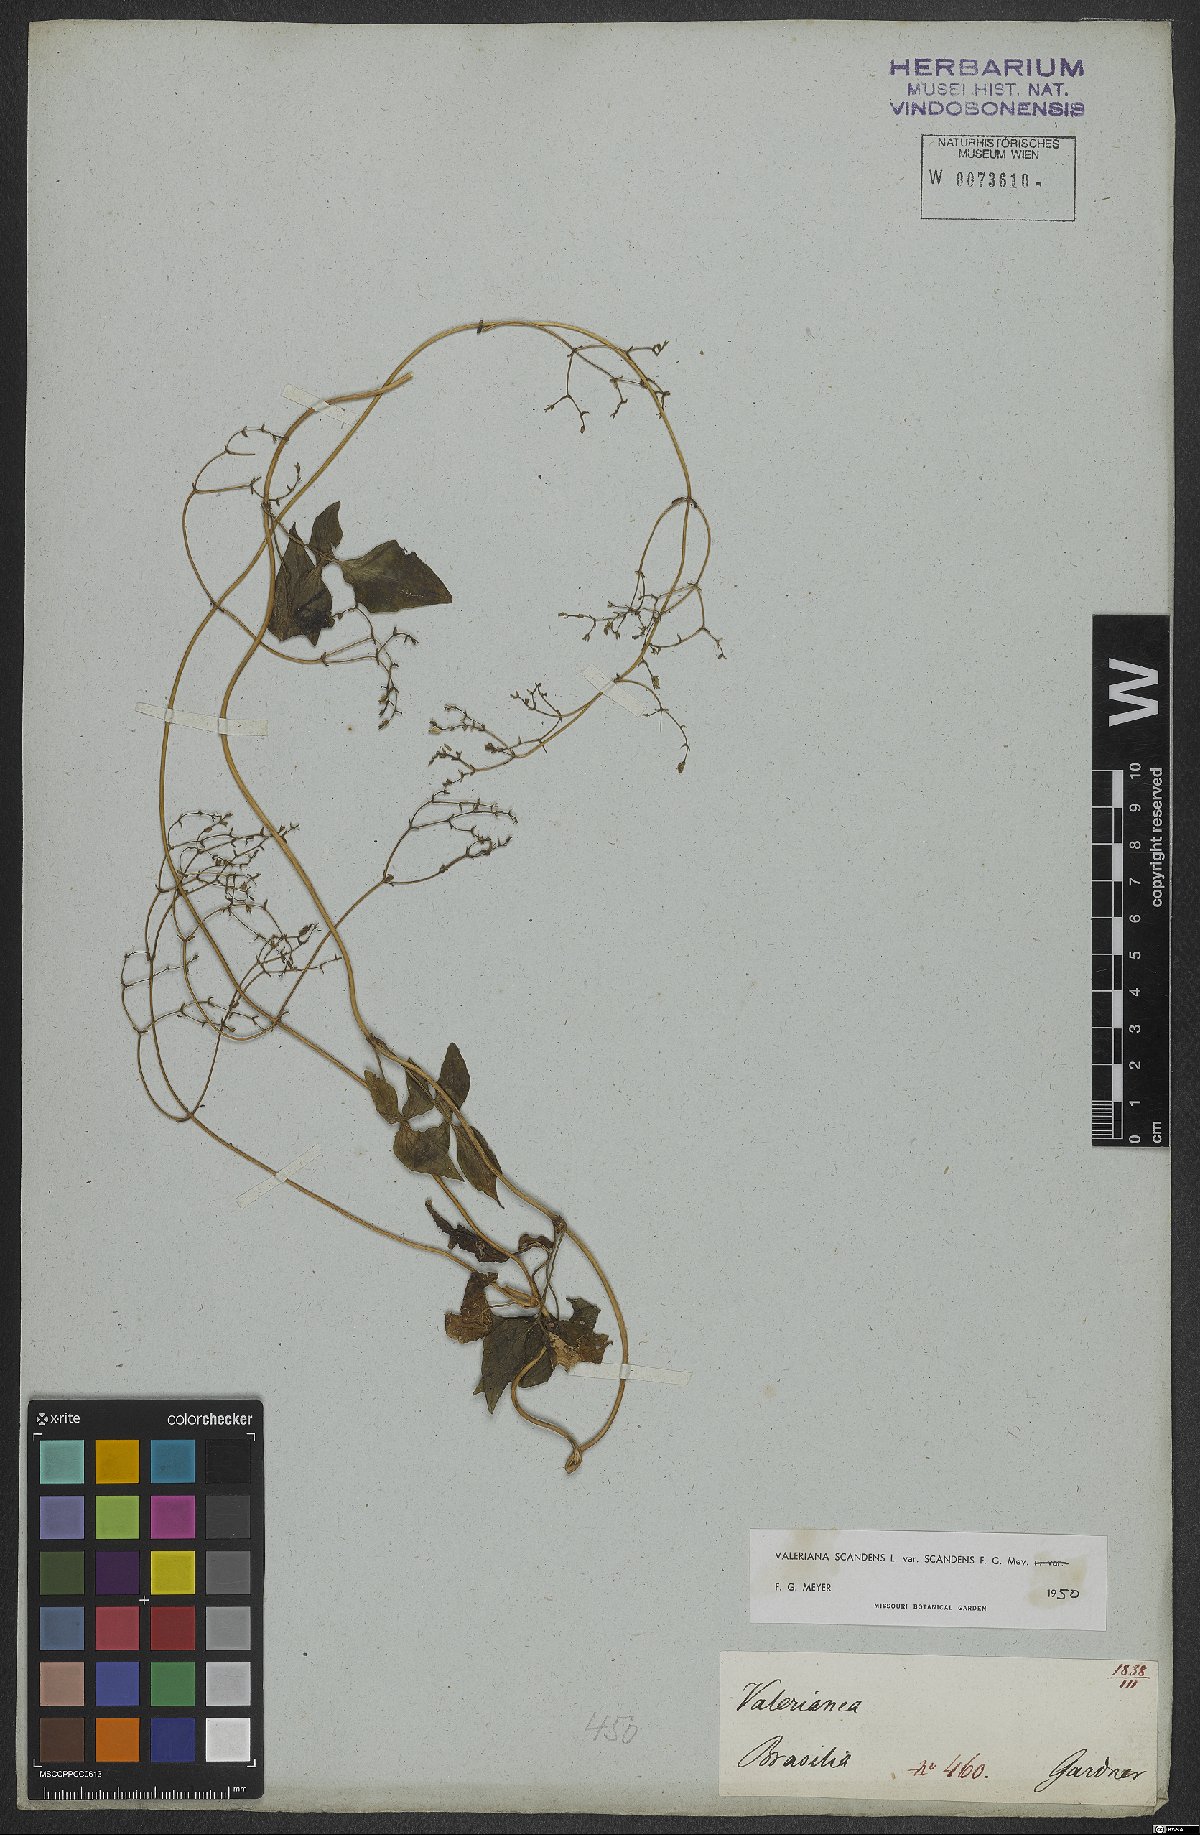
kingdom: Plantae
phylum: Tracheophyta
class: Magnoliopsida
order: Dipsacales
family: Caprifoliaceae
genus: Valeriana
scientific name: Valeriana scandens
